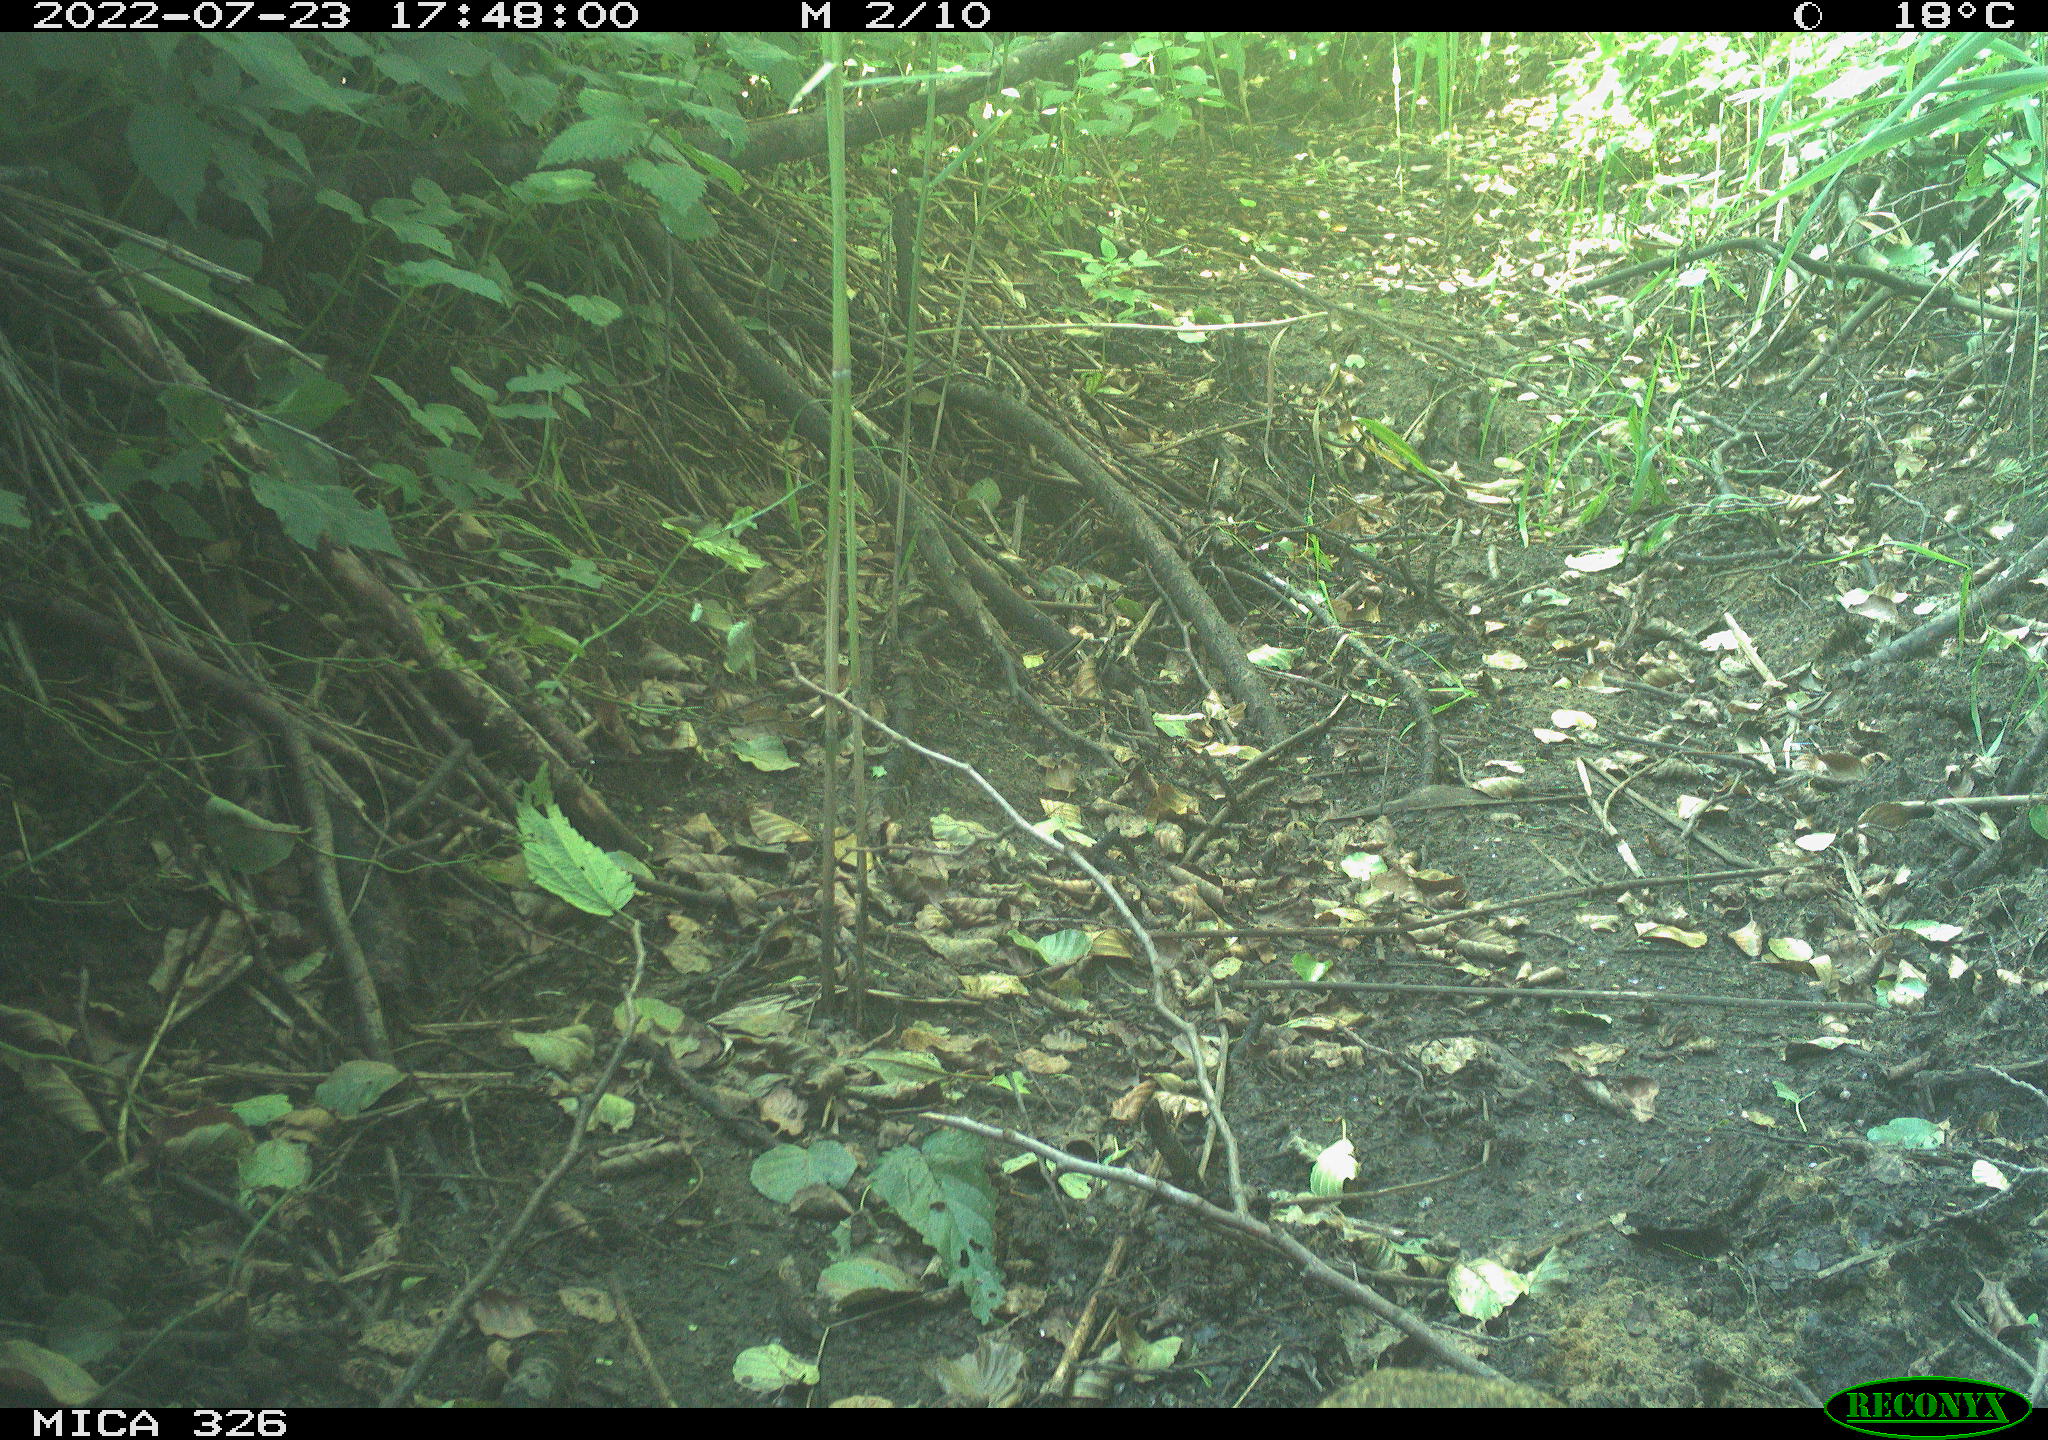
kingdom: Animalia
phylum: Chordata
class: Mammalia
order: Lagomorpha
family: Leporidae
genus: Lepus
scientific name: Lepus europaeus
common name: European hare
